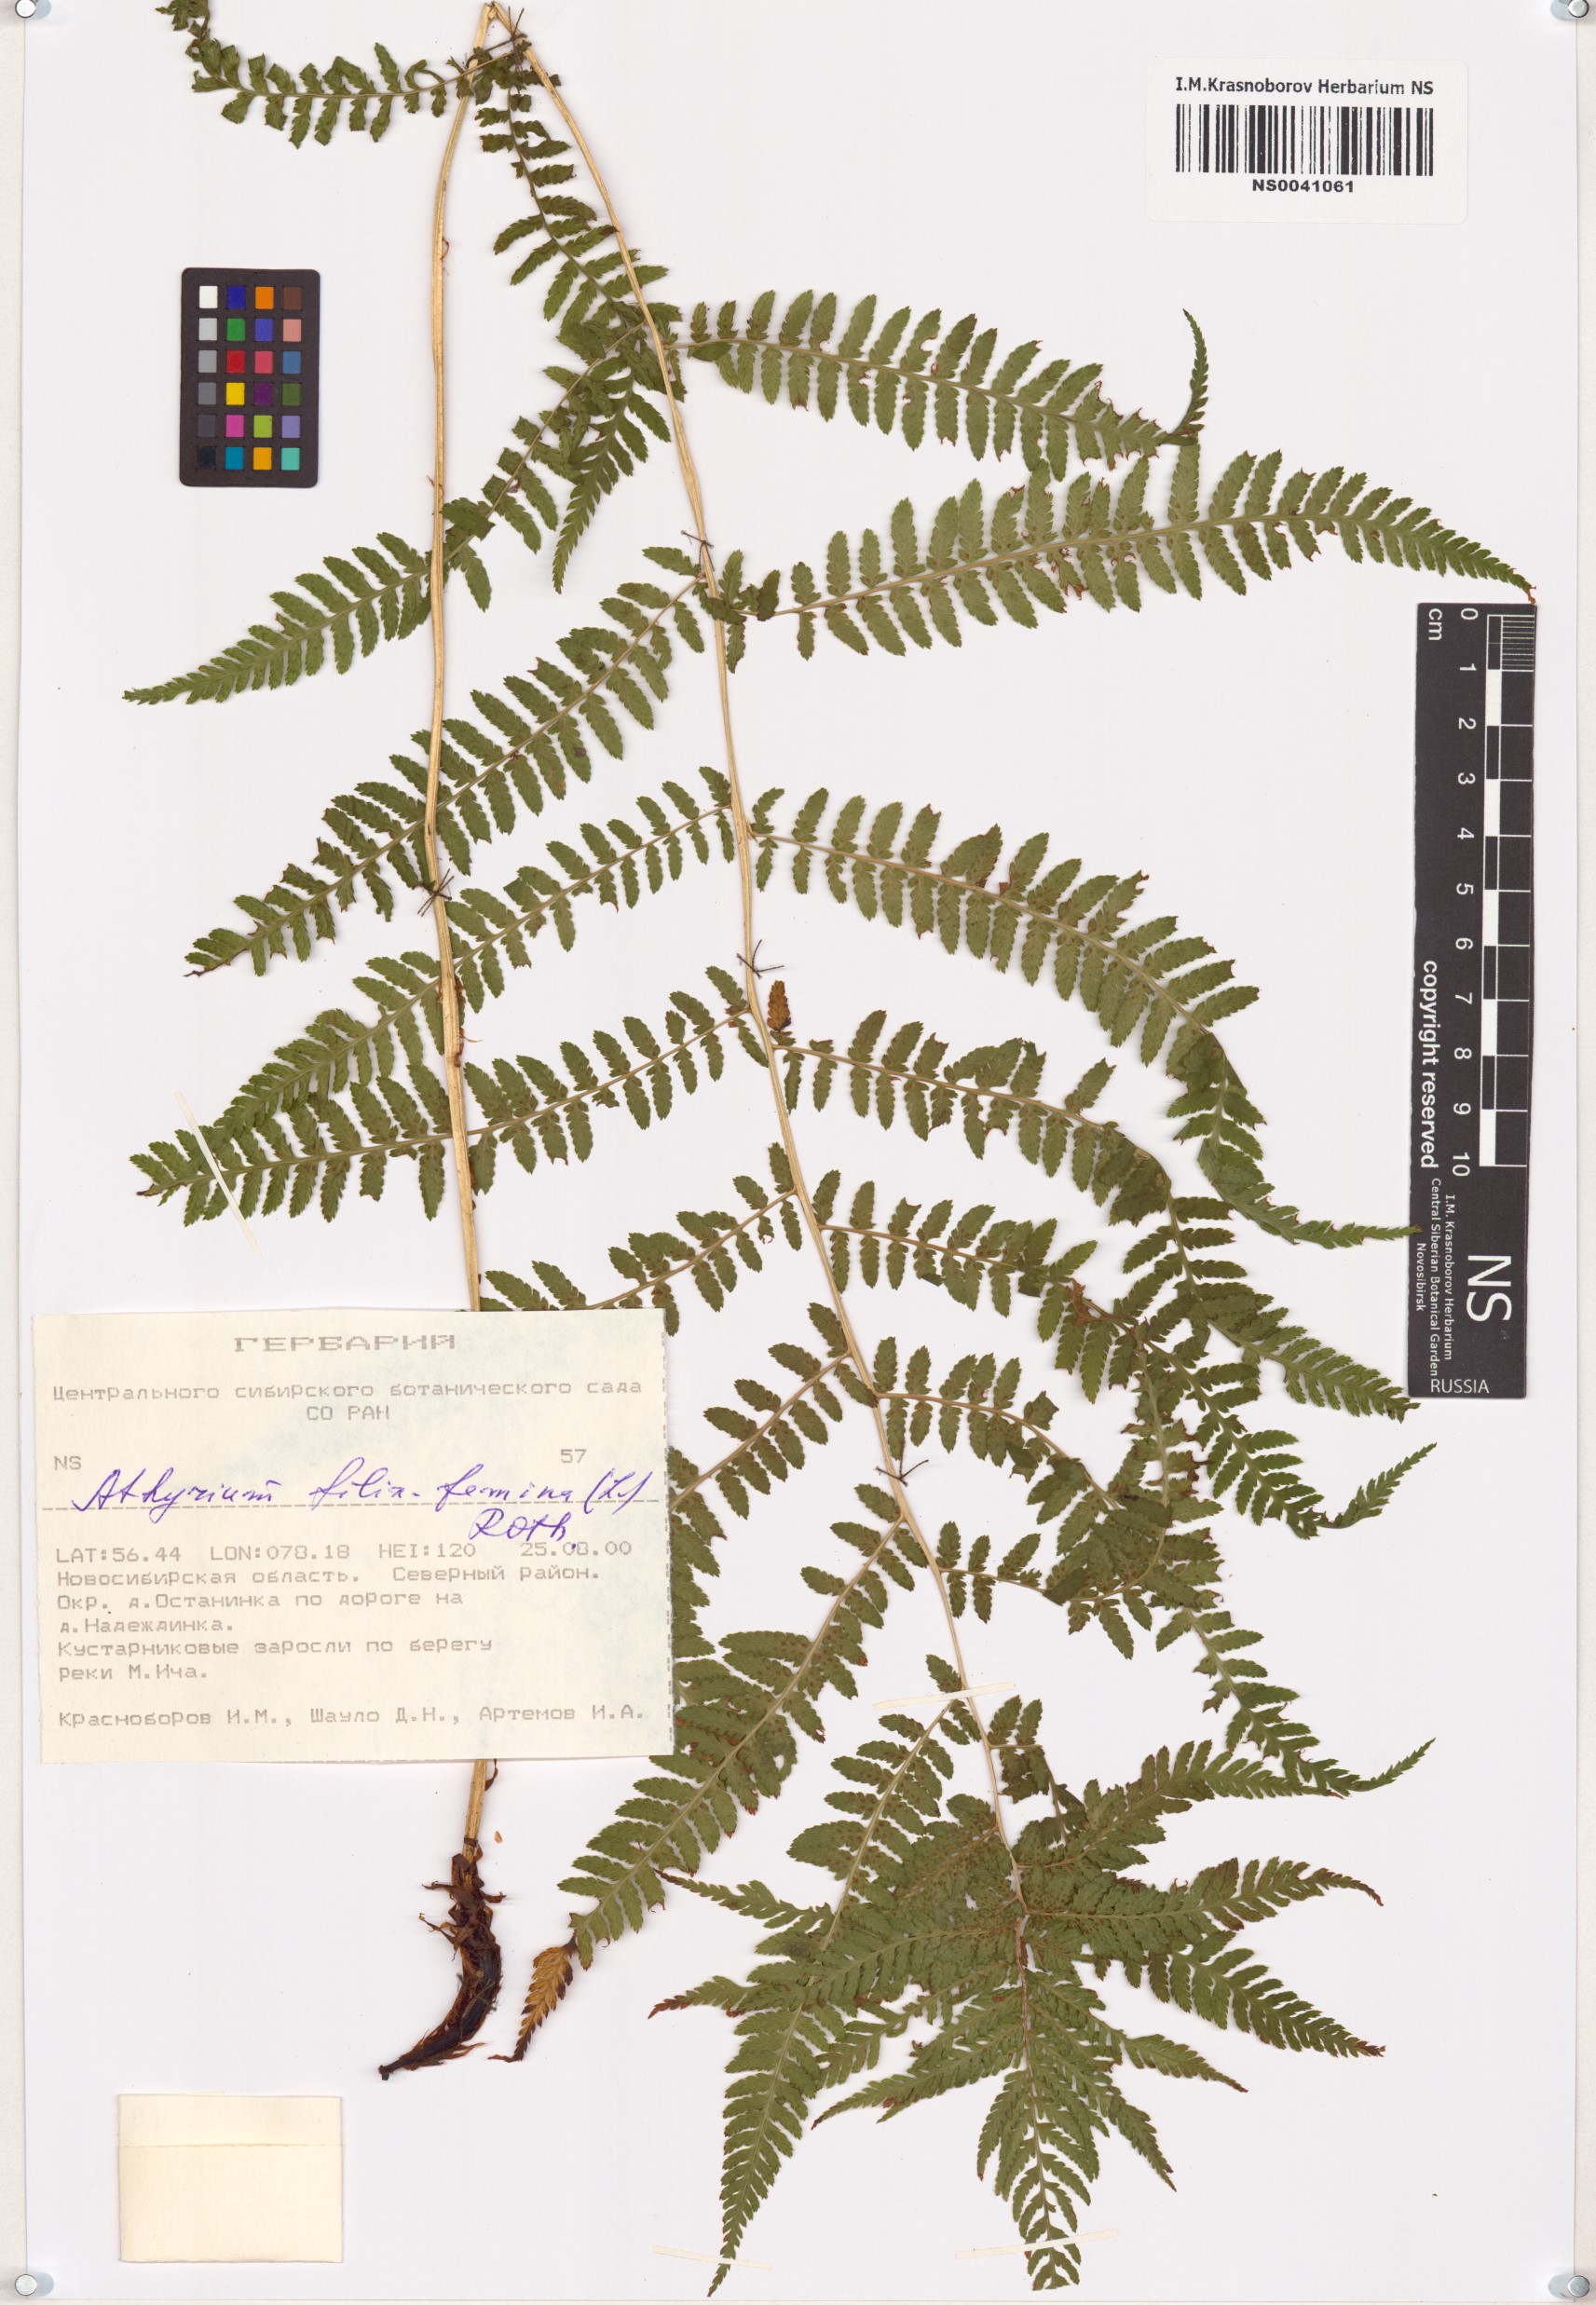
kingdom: Plantae
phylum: Tracheophyta
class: Polypodiopsida
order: Polypodiales
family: Athyriaceae
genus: Athyrium
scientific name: Athyrium filix-femina
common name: Lady fern
